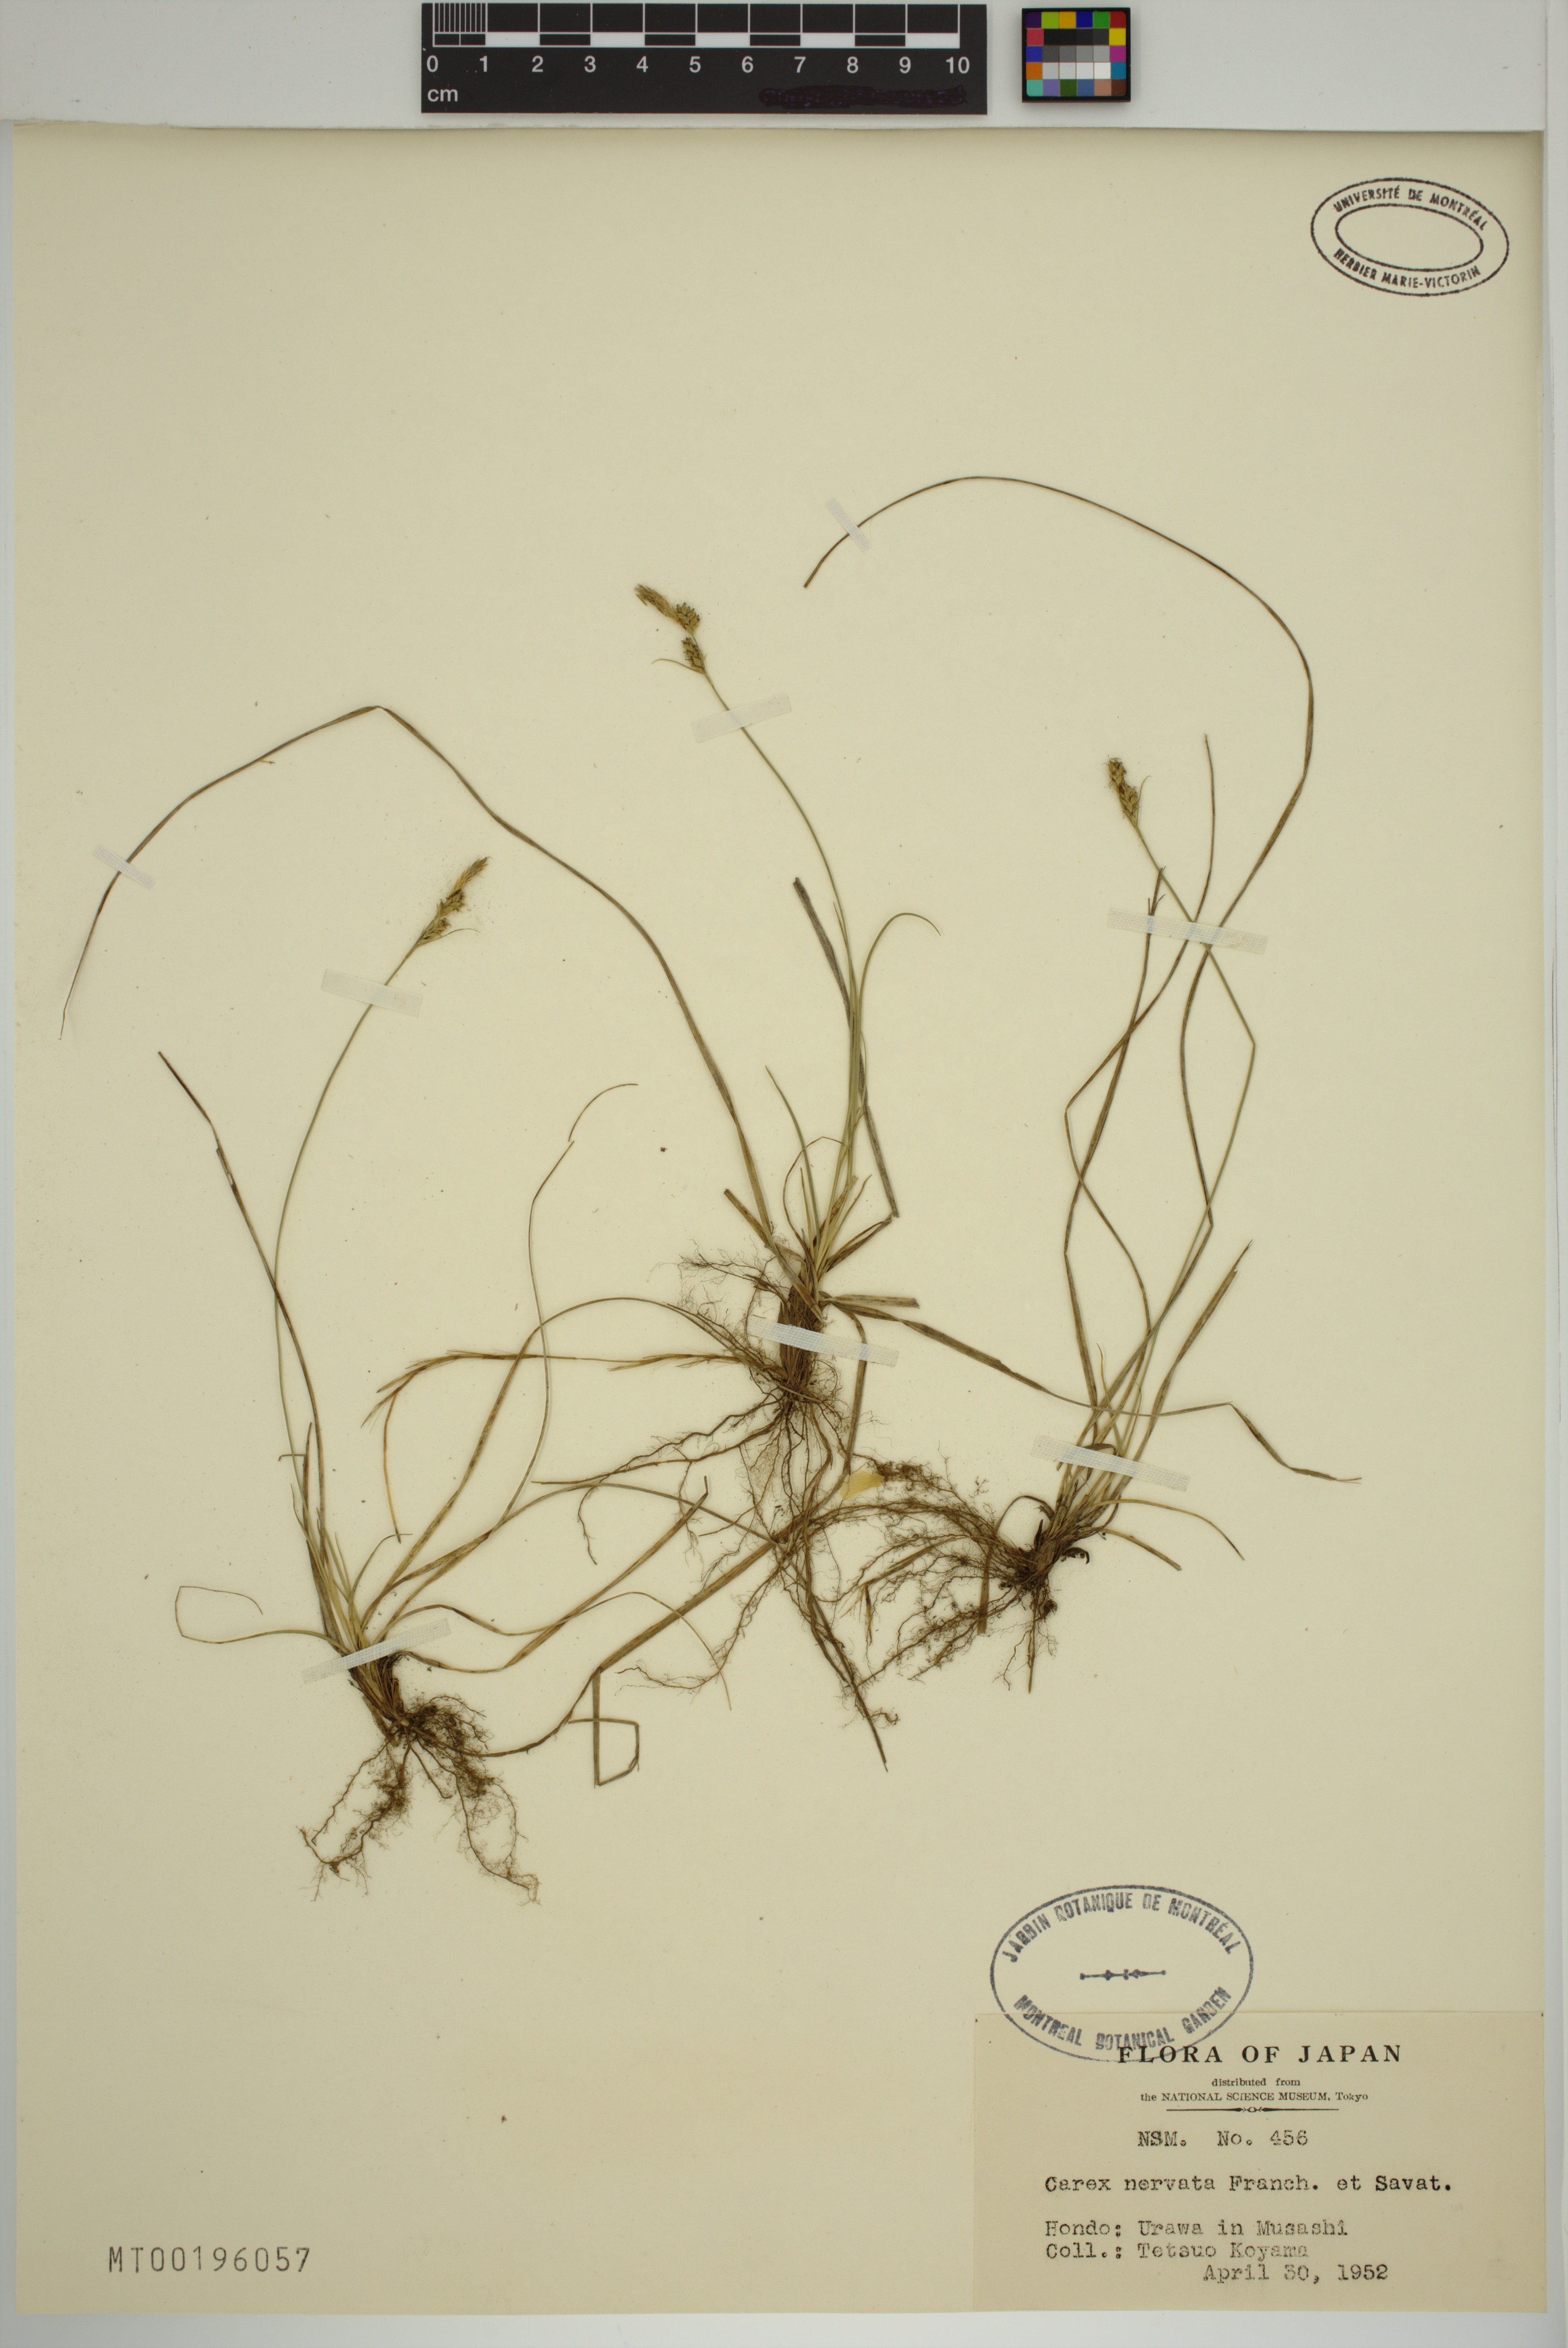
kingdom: Plantae
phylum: Tracheophyta
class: Liliopsida
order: Poales
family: Cyperaceae
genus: Carex
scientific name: Carex nervata
